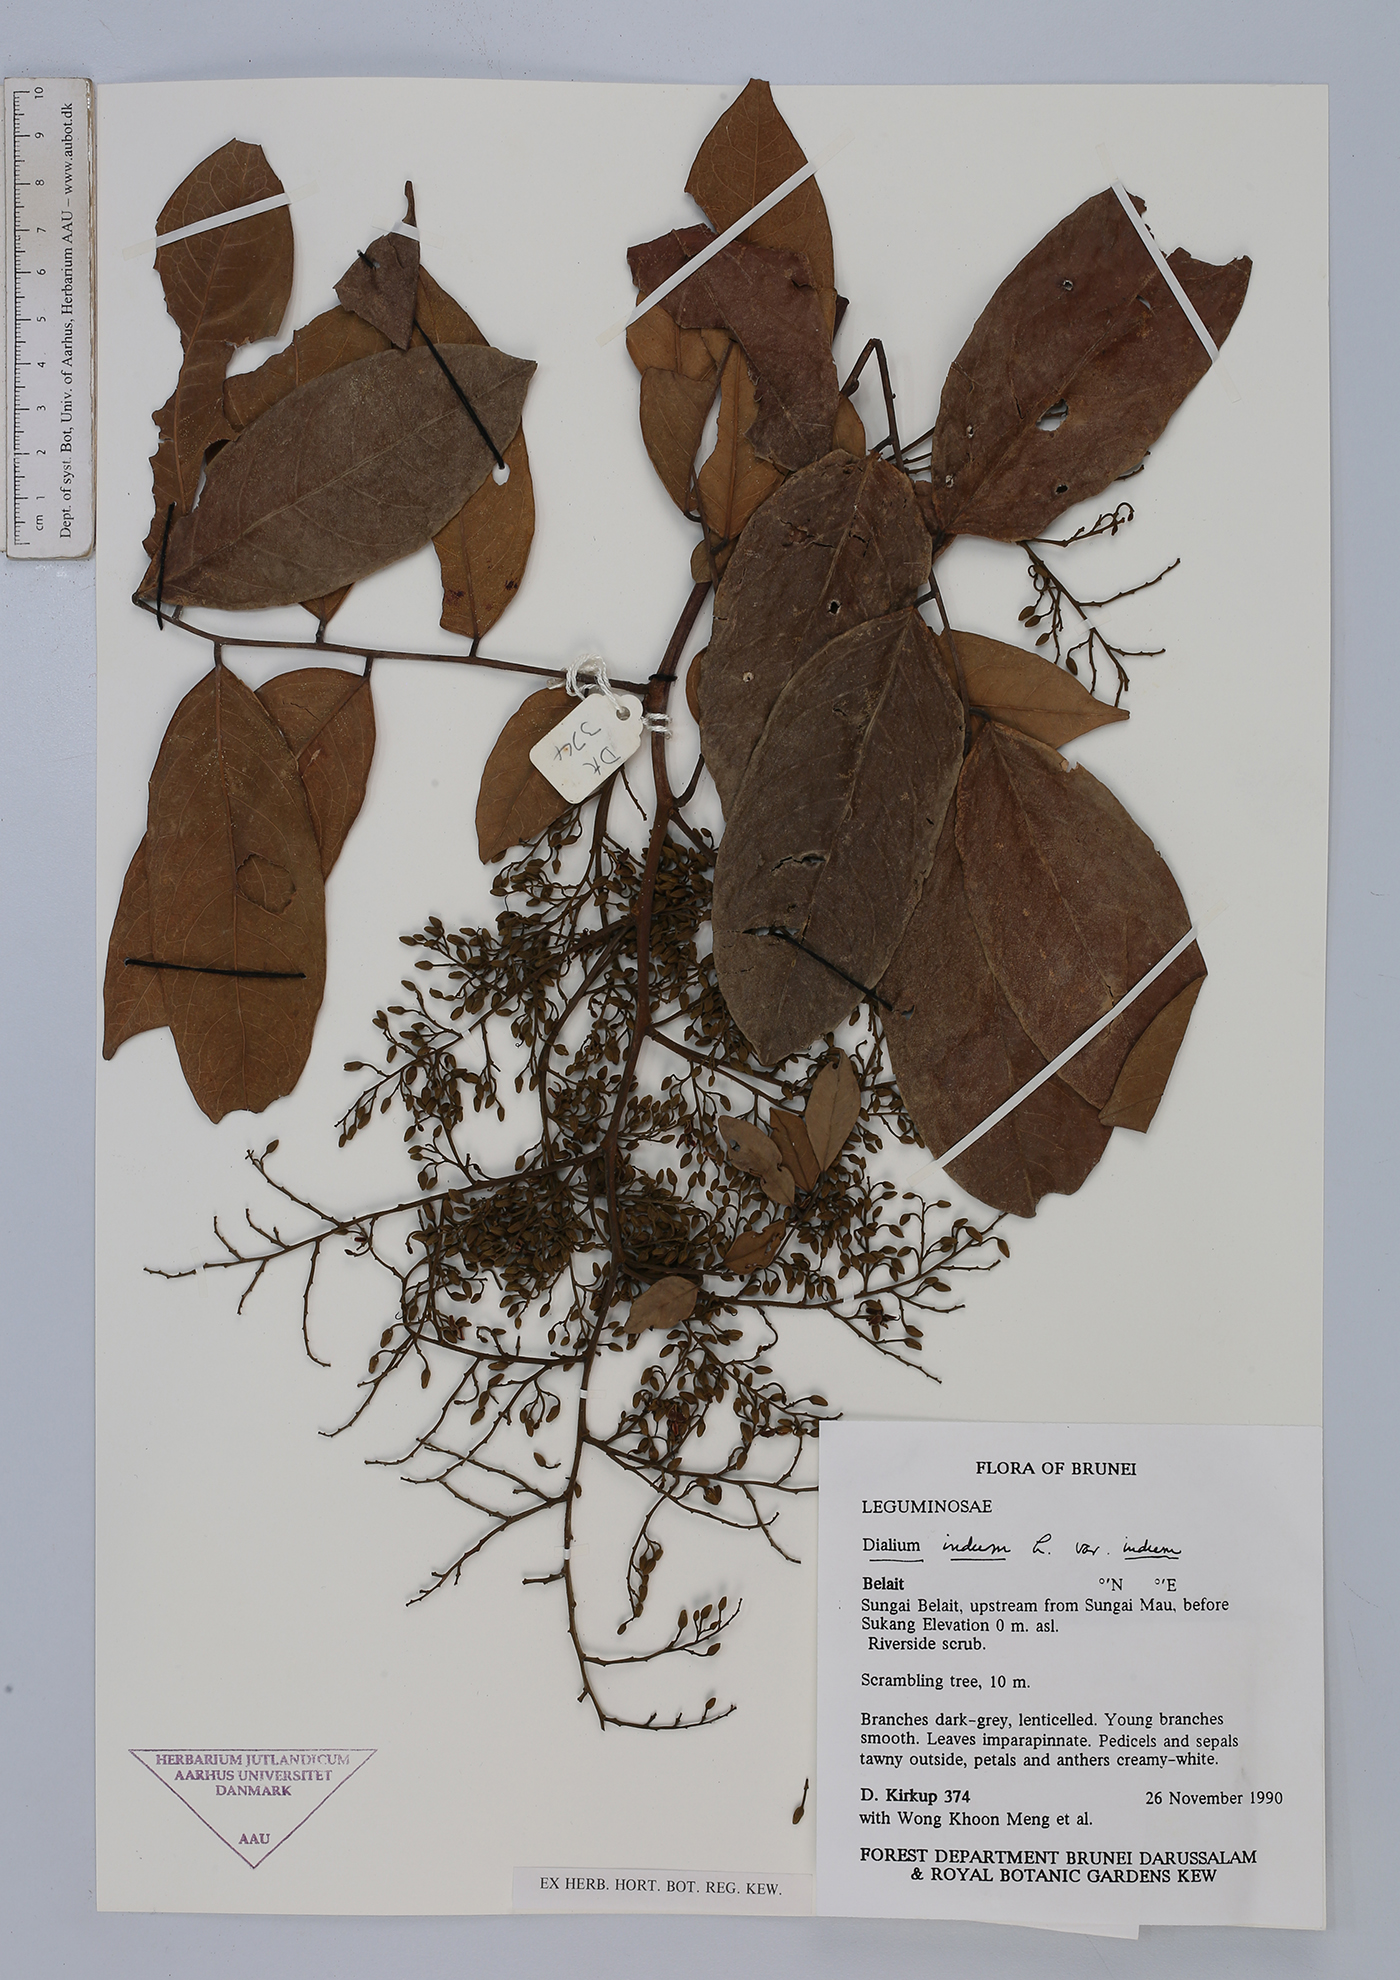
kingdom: Plantae
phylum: Tracheophyta
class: Magnoliopsida
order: Fabales
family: Fabaceae
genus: Dialium
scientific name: Dialium indum
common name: Tamarind-plum
